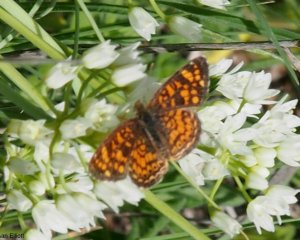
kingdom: Animalia
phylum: Arthropoda
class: Insecta
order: Lepidoptera
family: Nymphalidae
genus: Phyciodes
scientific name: Phyciodes vesta
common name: Vesta Crescent
